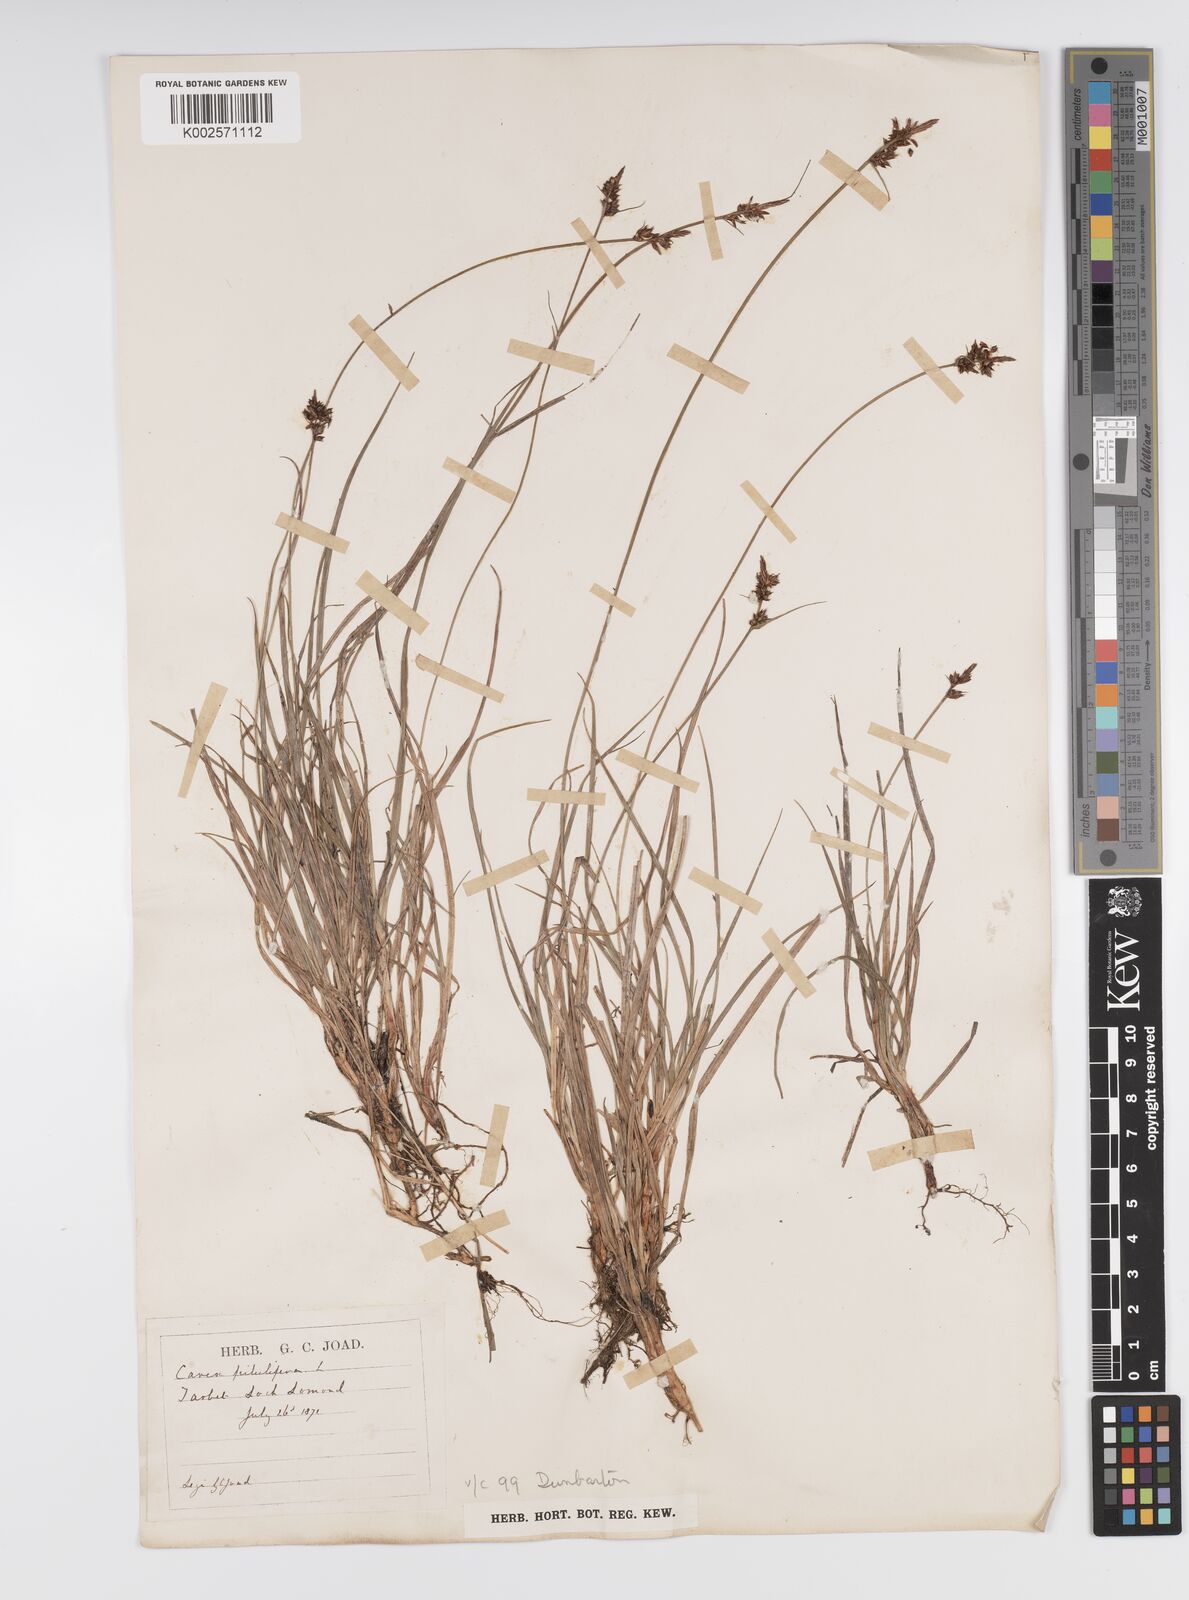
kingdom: Plantae
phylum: Tracheophyta
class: Liliopsida
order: Poales
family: Cyperaceae
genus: Carex
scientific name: Carex pilulifera
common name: Pill sedge
